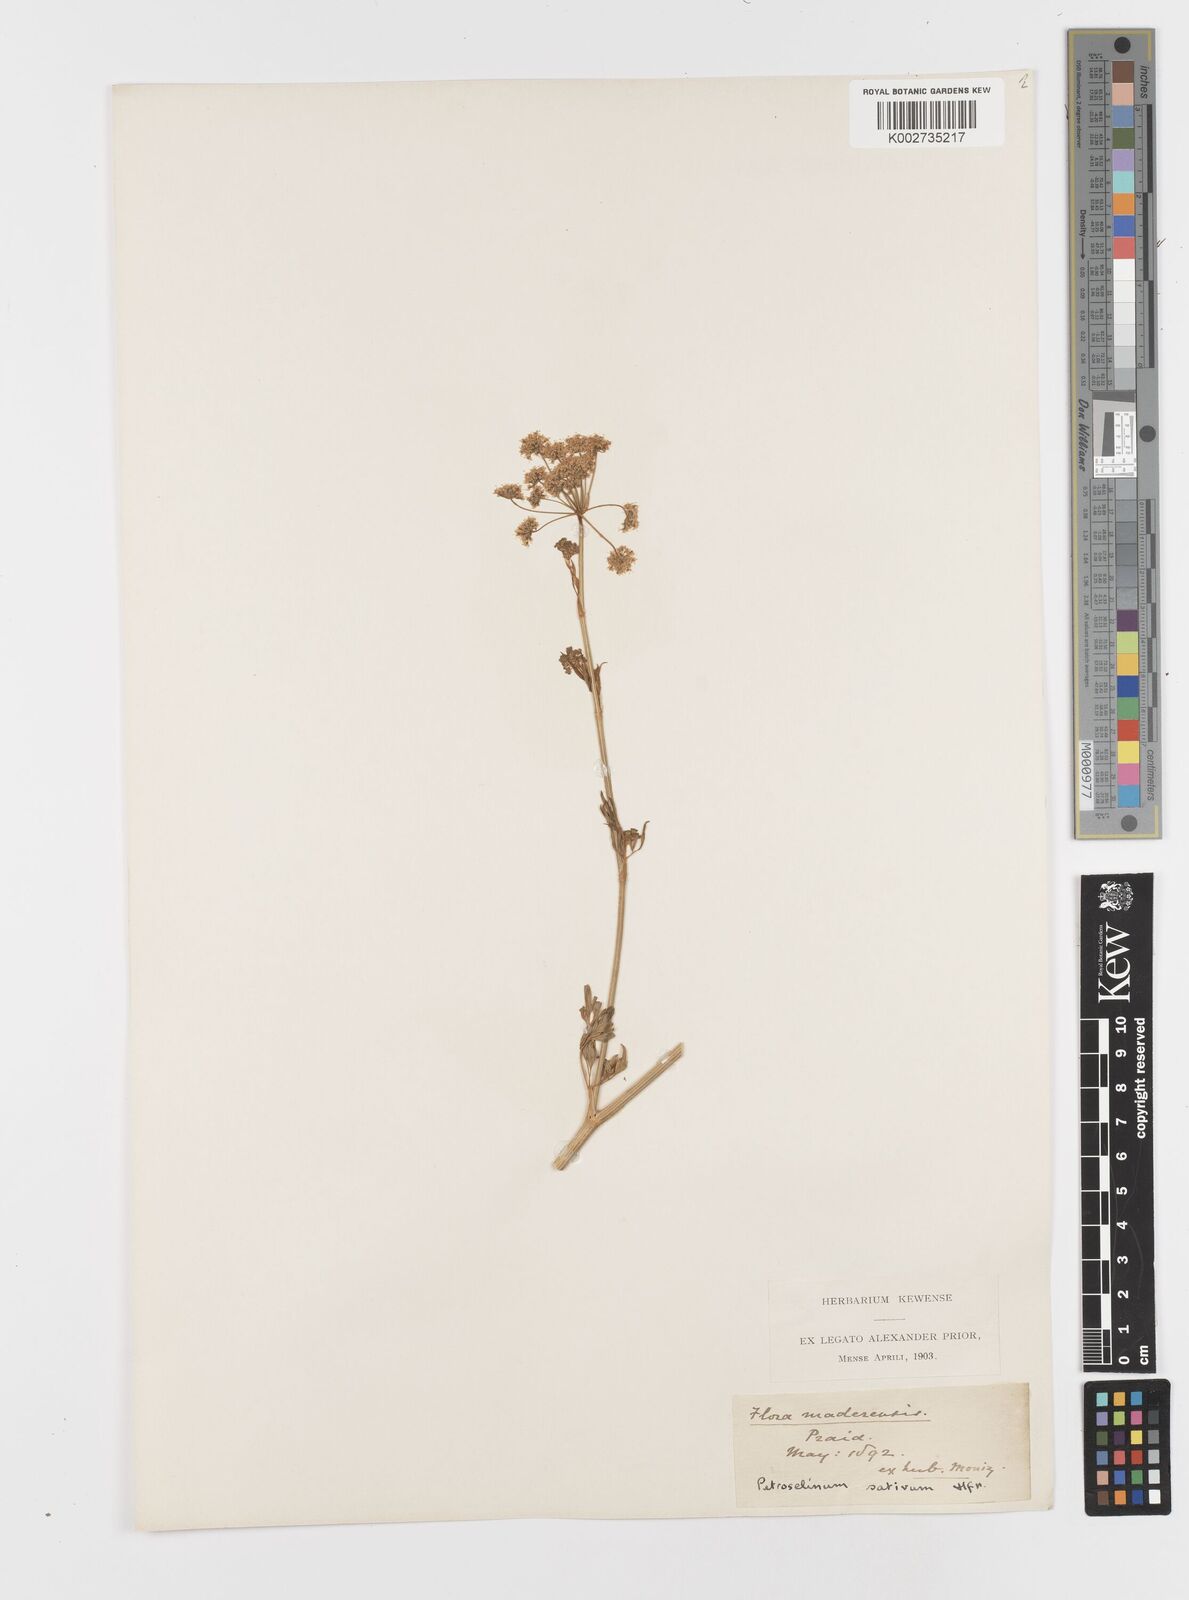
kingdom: Plantae
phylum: Tracheophyta
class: Magnoliopsida
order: Apiales
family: Apiaceae
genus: Petroselinum
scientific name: Petroselinum crispum
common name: Parsley
